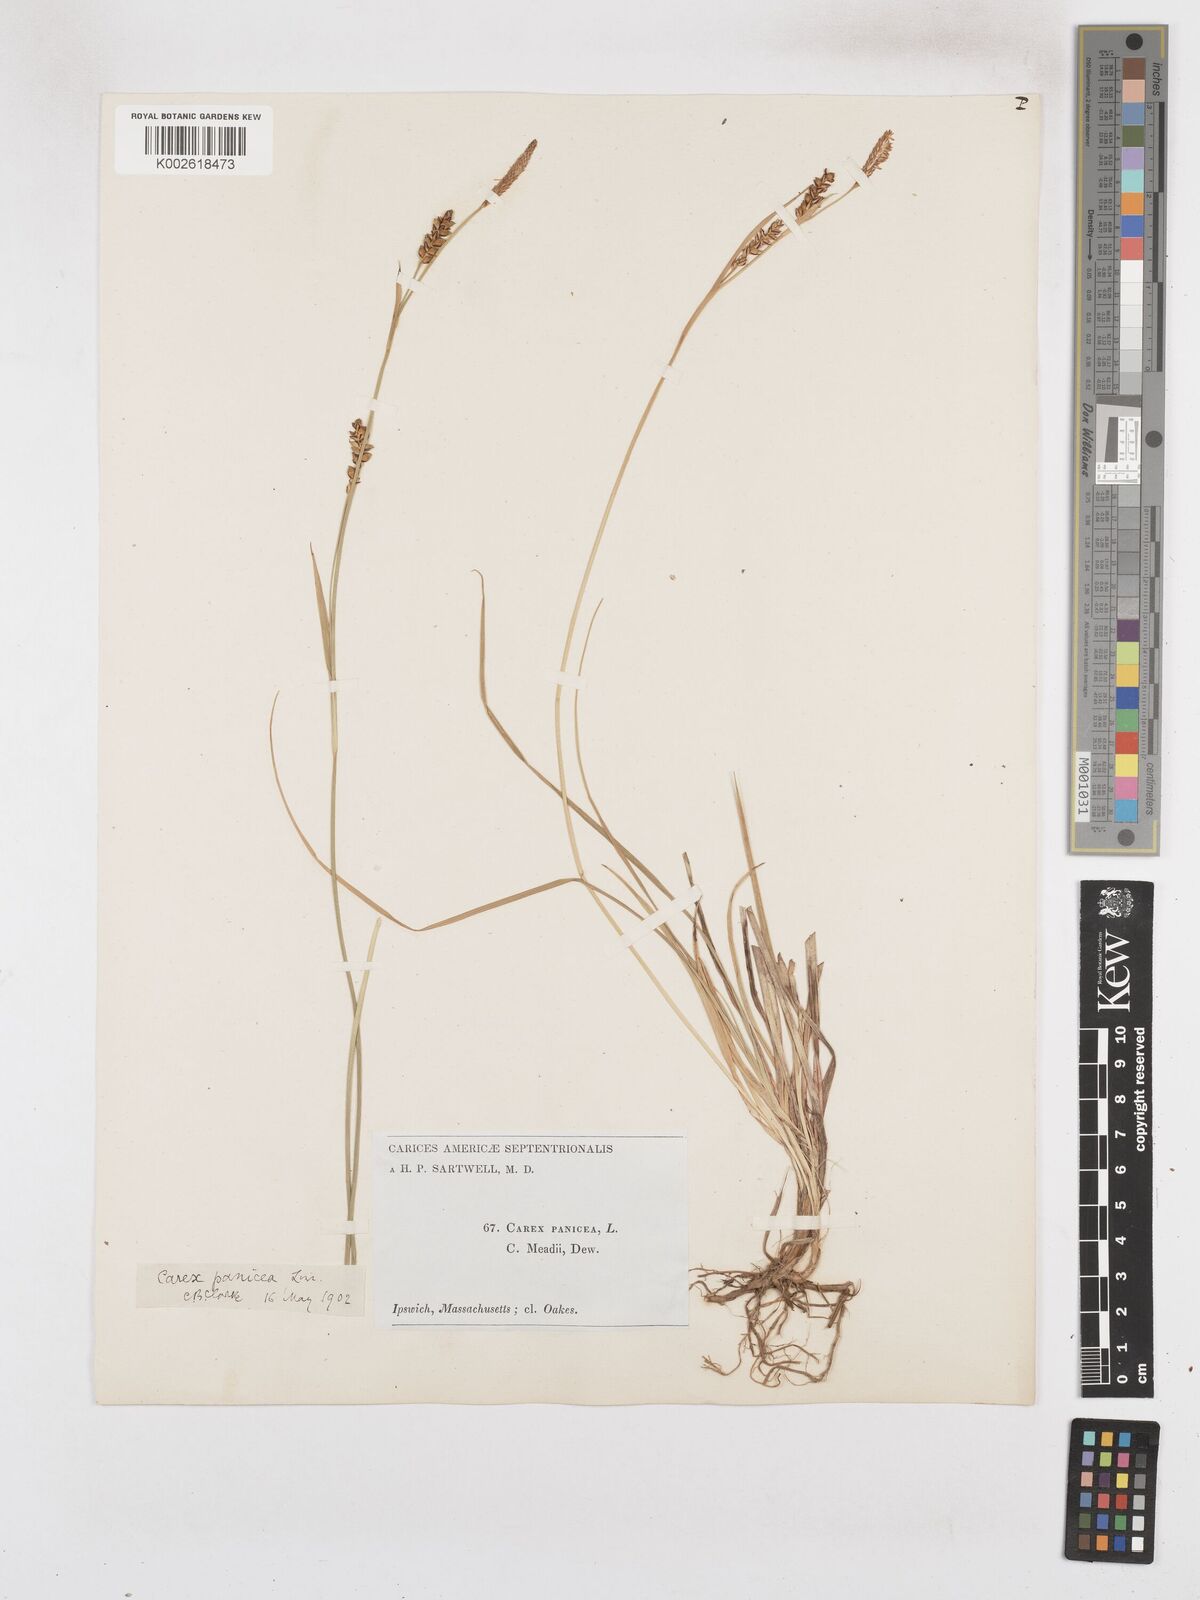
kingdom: Plantae
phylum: Tracheophyta
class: Liliopsida
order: Poales
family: Cyperaceae
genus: Carex
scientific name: Carex panicea
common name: Carnation sedge
